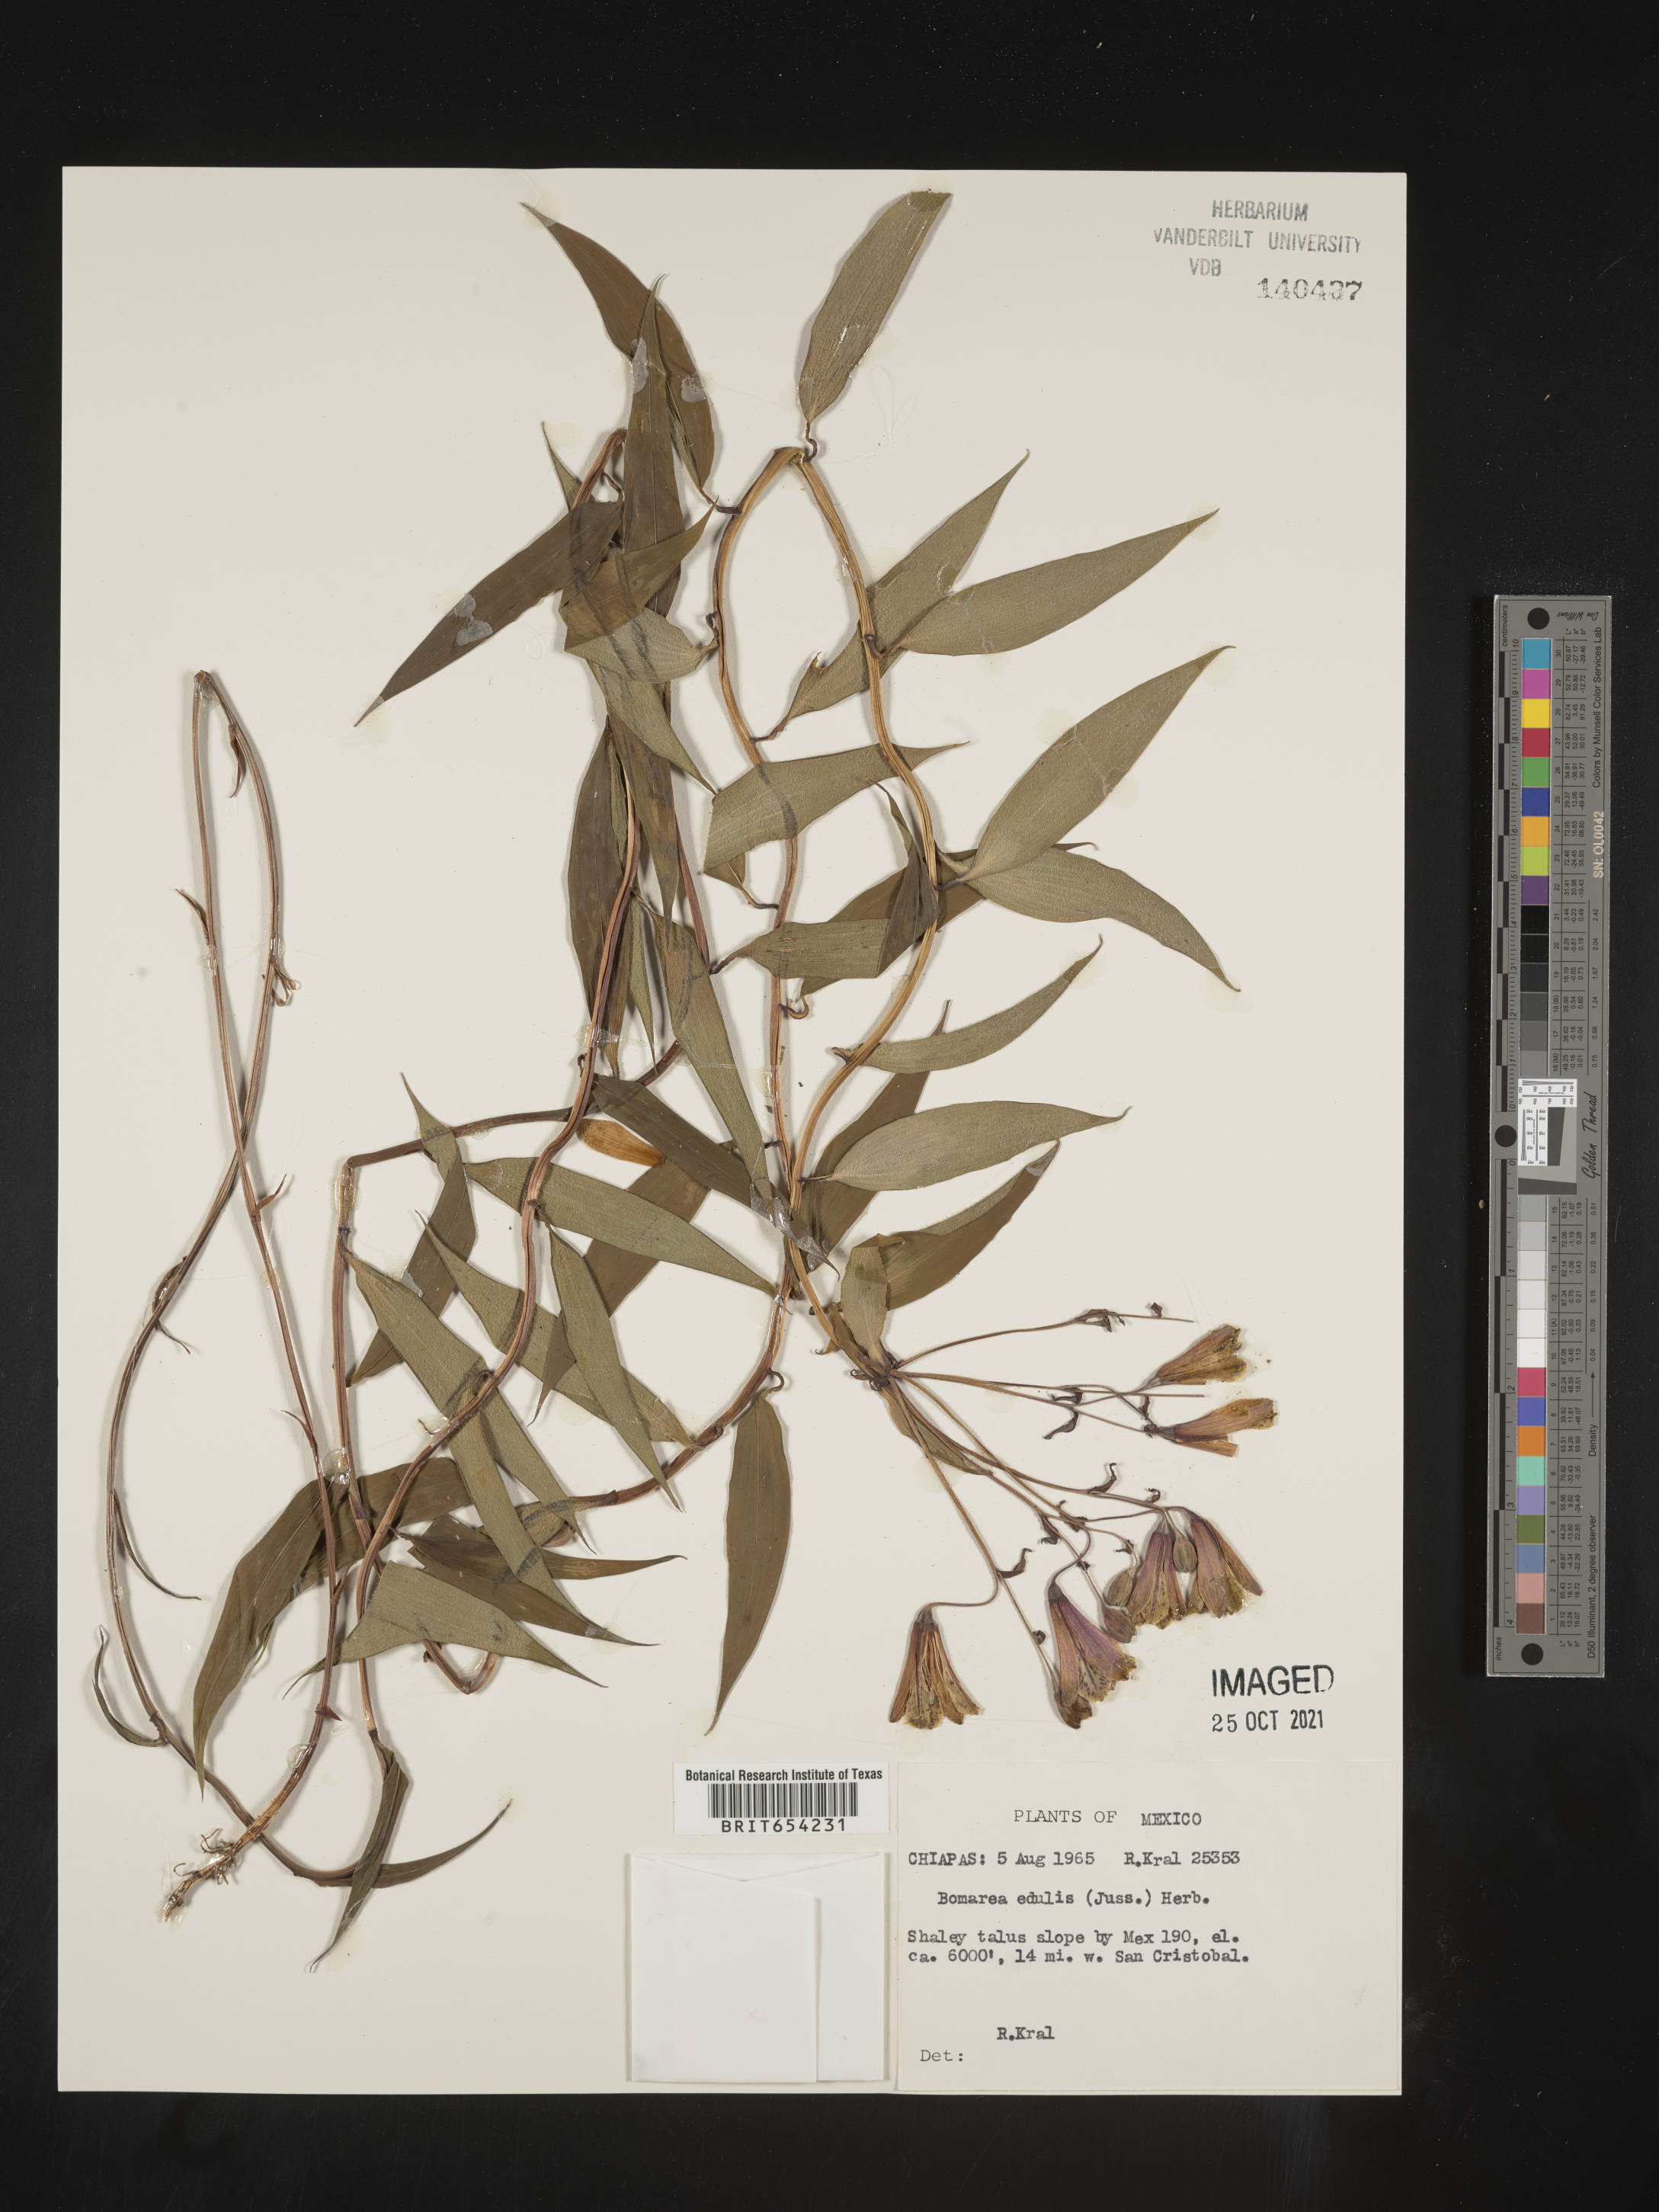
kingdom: Plantae
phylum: Tracheophyta
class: Liliopsida
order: Liliales
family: Alstroemeriaceae
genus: Bomarea
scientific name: Bomarea
